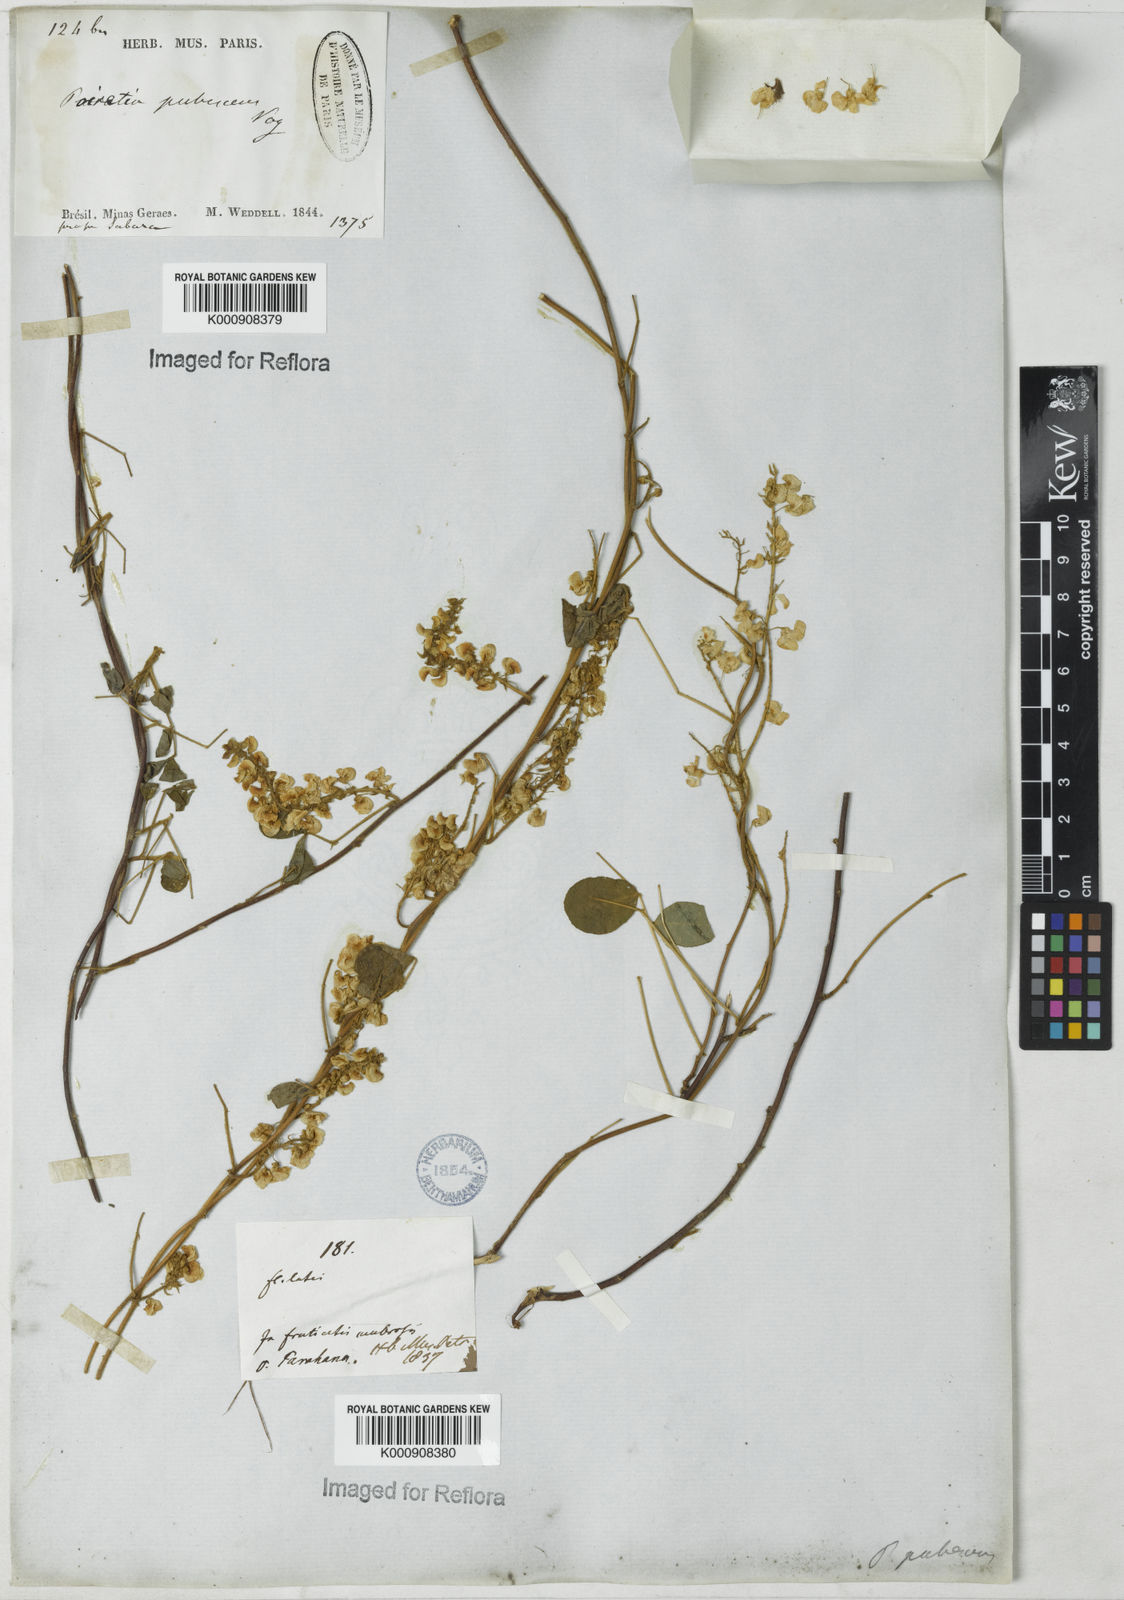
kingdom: Plantae
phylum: Tracheophyta
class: Magnoliopsida
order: Fabales
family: Fabaceae
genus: Poiretia
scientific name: Poiretia punctata
